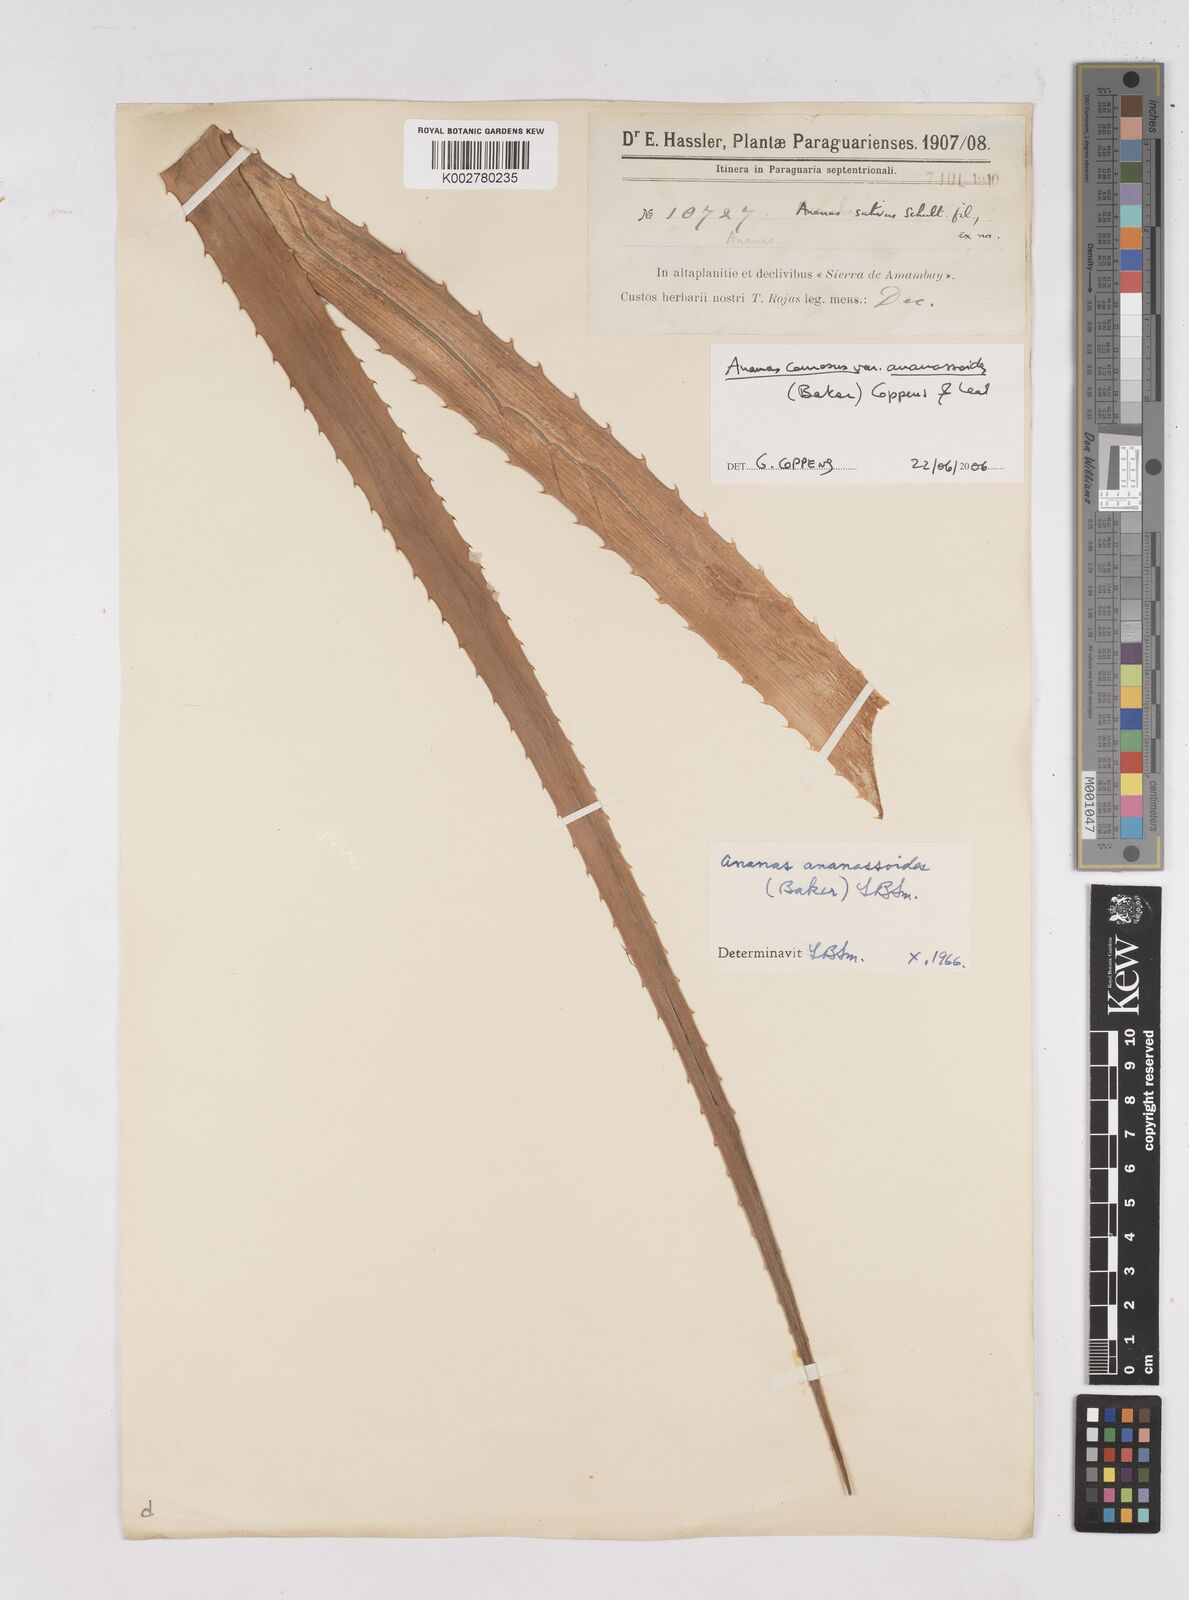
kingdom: Plantae
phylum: Tracheophyta
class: Liliopsida
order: Poales
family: Bromeliaceae
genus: Ananas
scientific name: Ananas comosus
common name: Pineapple
